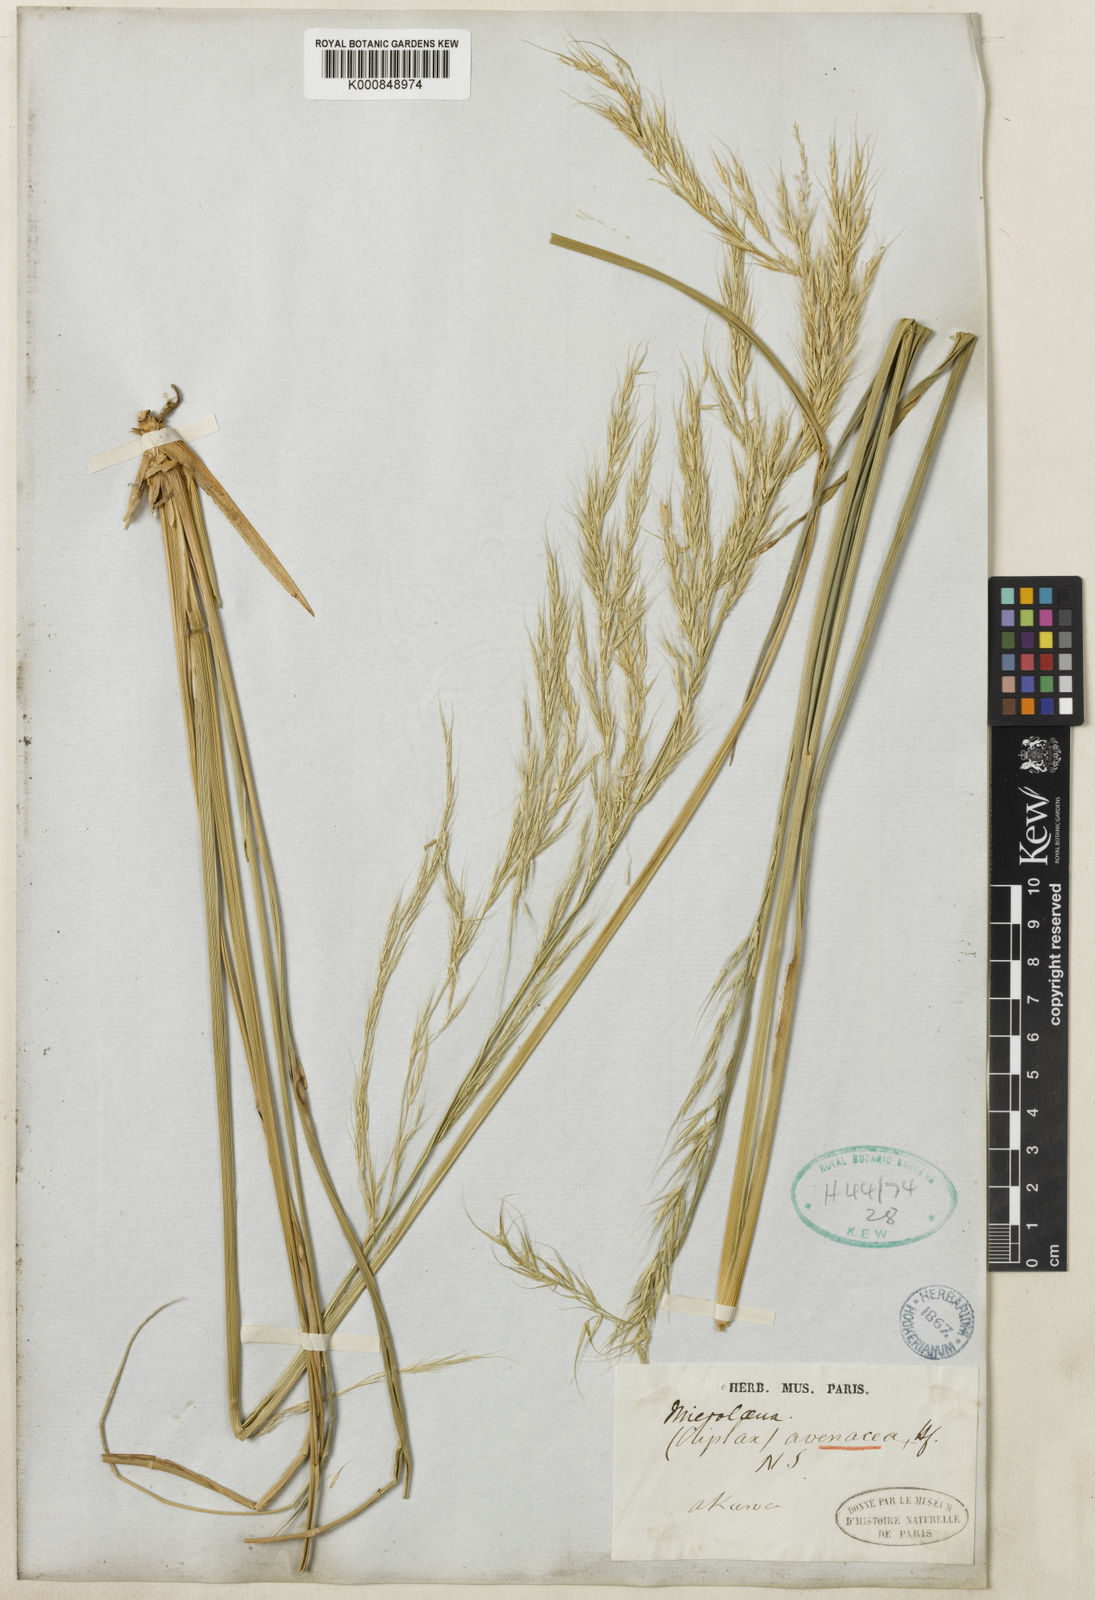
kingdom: Plantae
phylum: Tracheophyta
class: Liliopsida
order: Poales
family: Poaceae
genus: Ehrharta
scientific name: Ehrharta diplax
